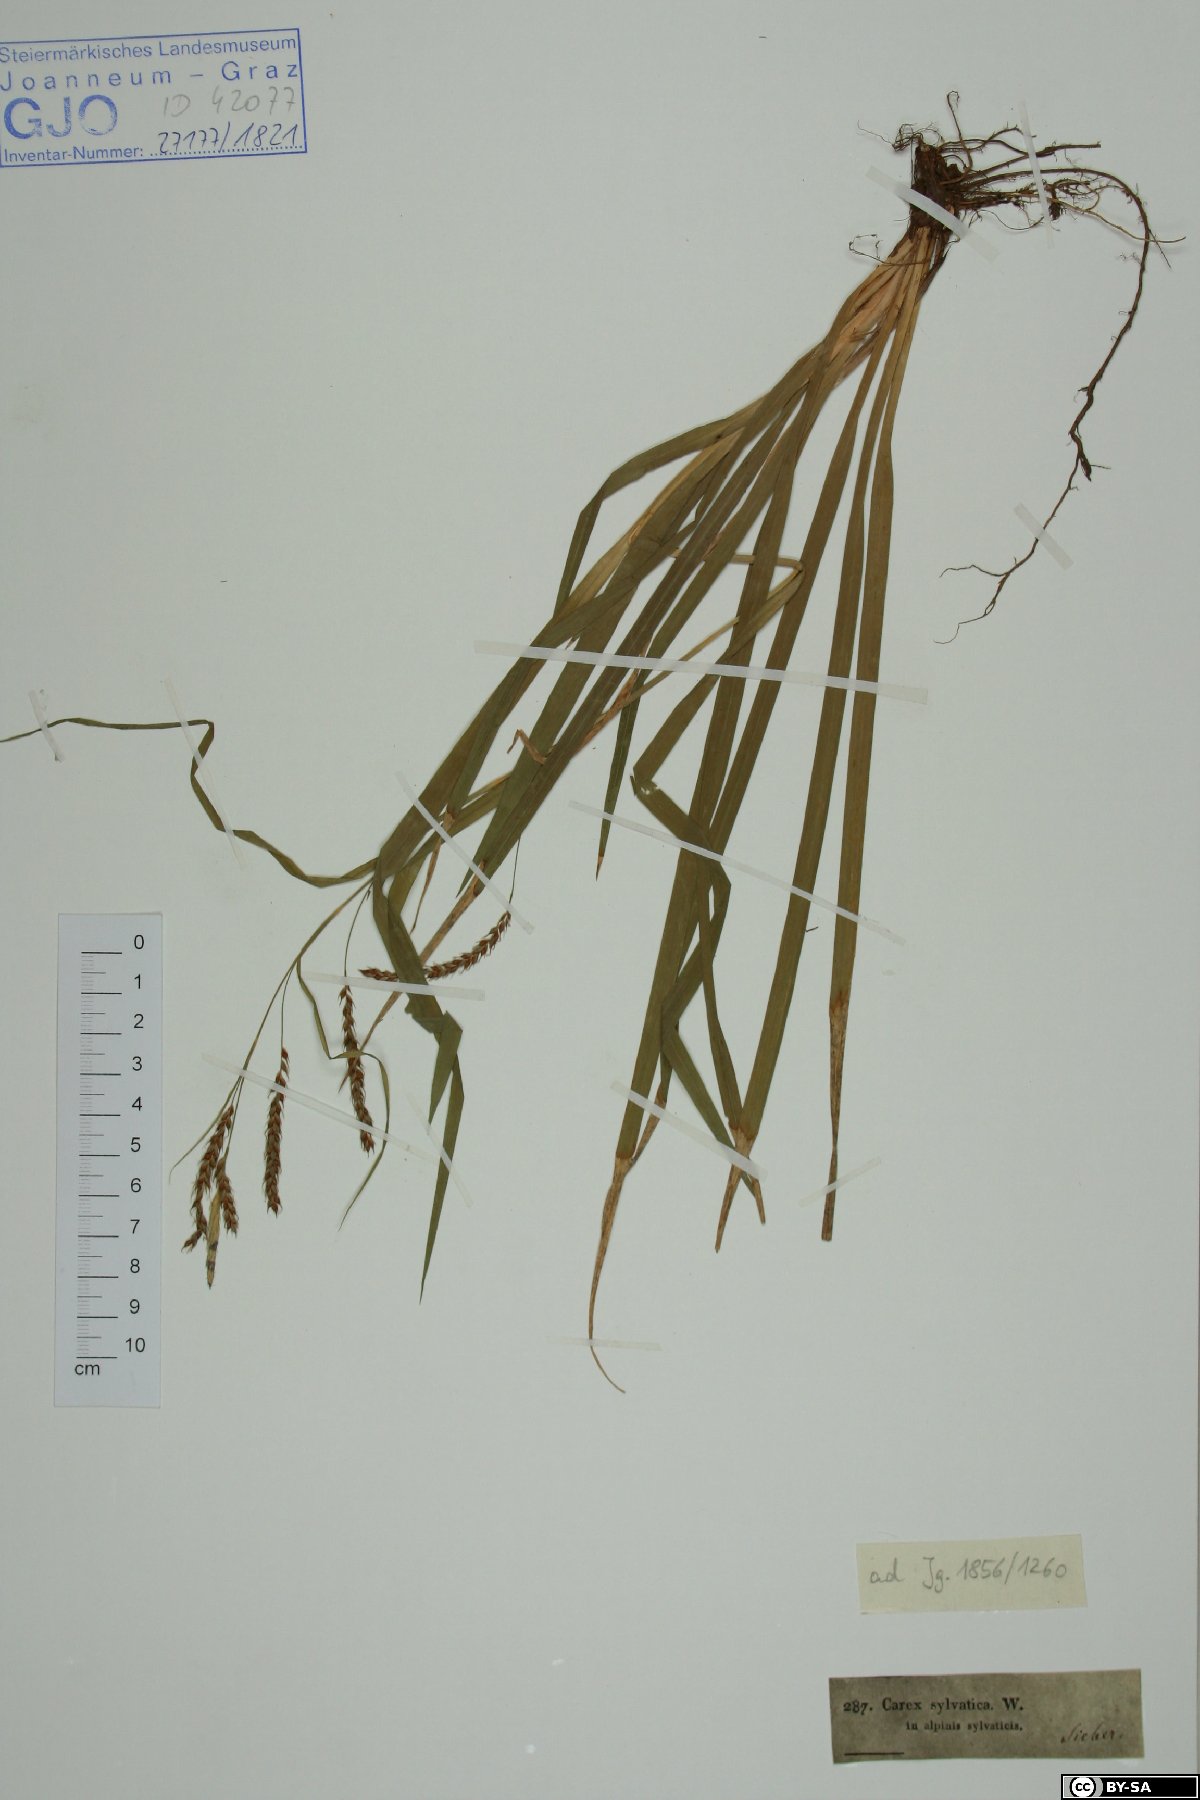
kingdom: Plantae
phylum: Tracheophyta
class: Liliopsida
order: Poales
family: Cyperaceae
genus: Carex
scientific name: Carex sylvatica
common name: Wood-sedge
